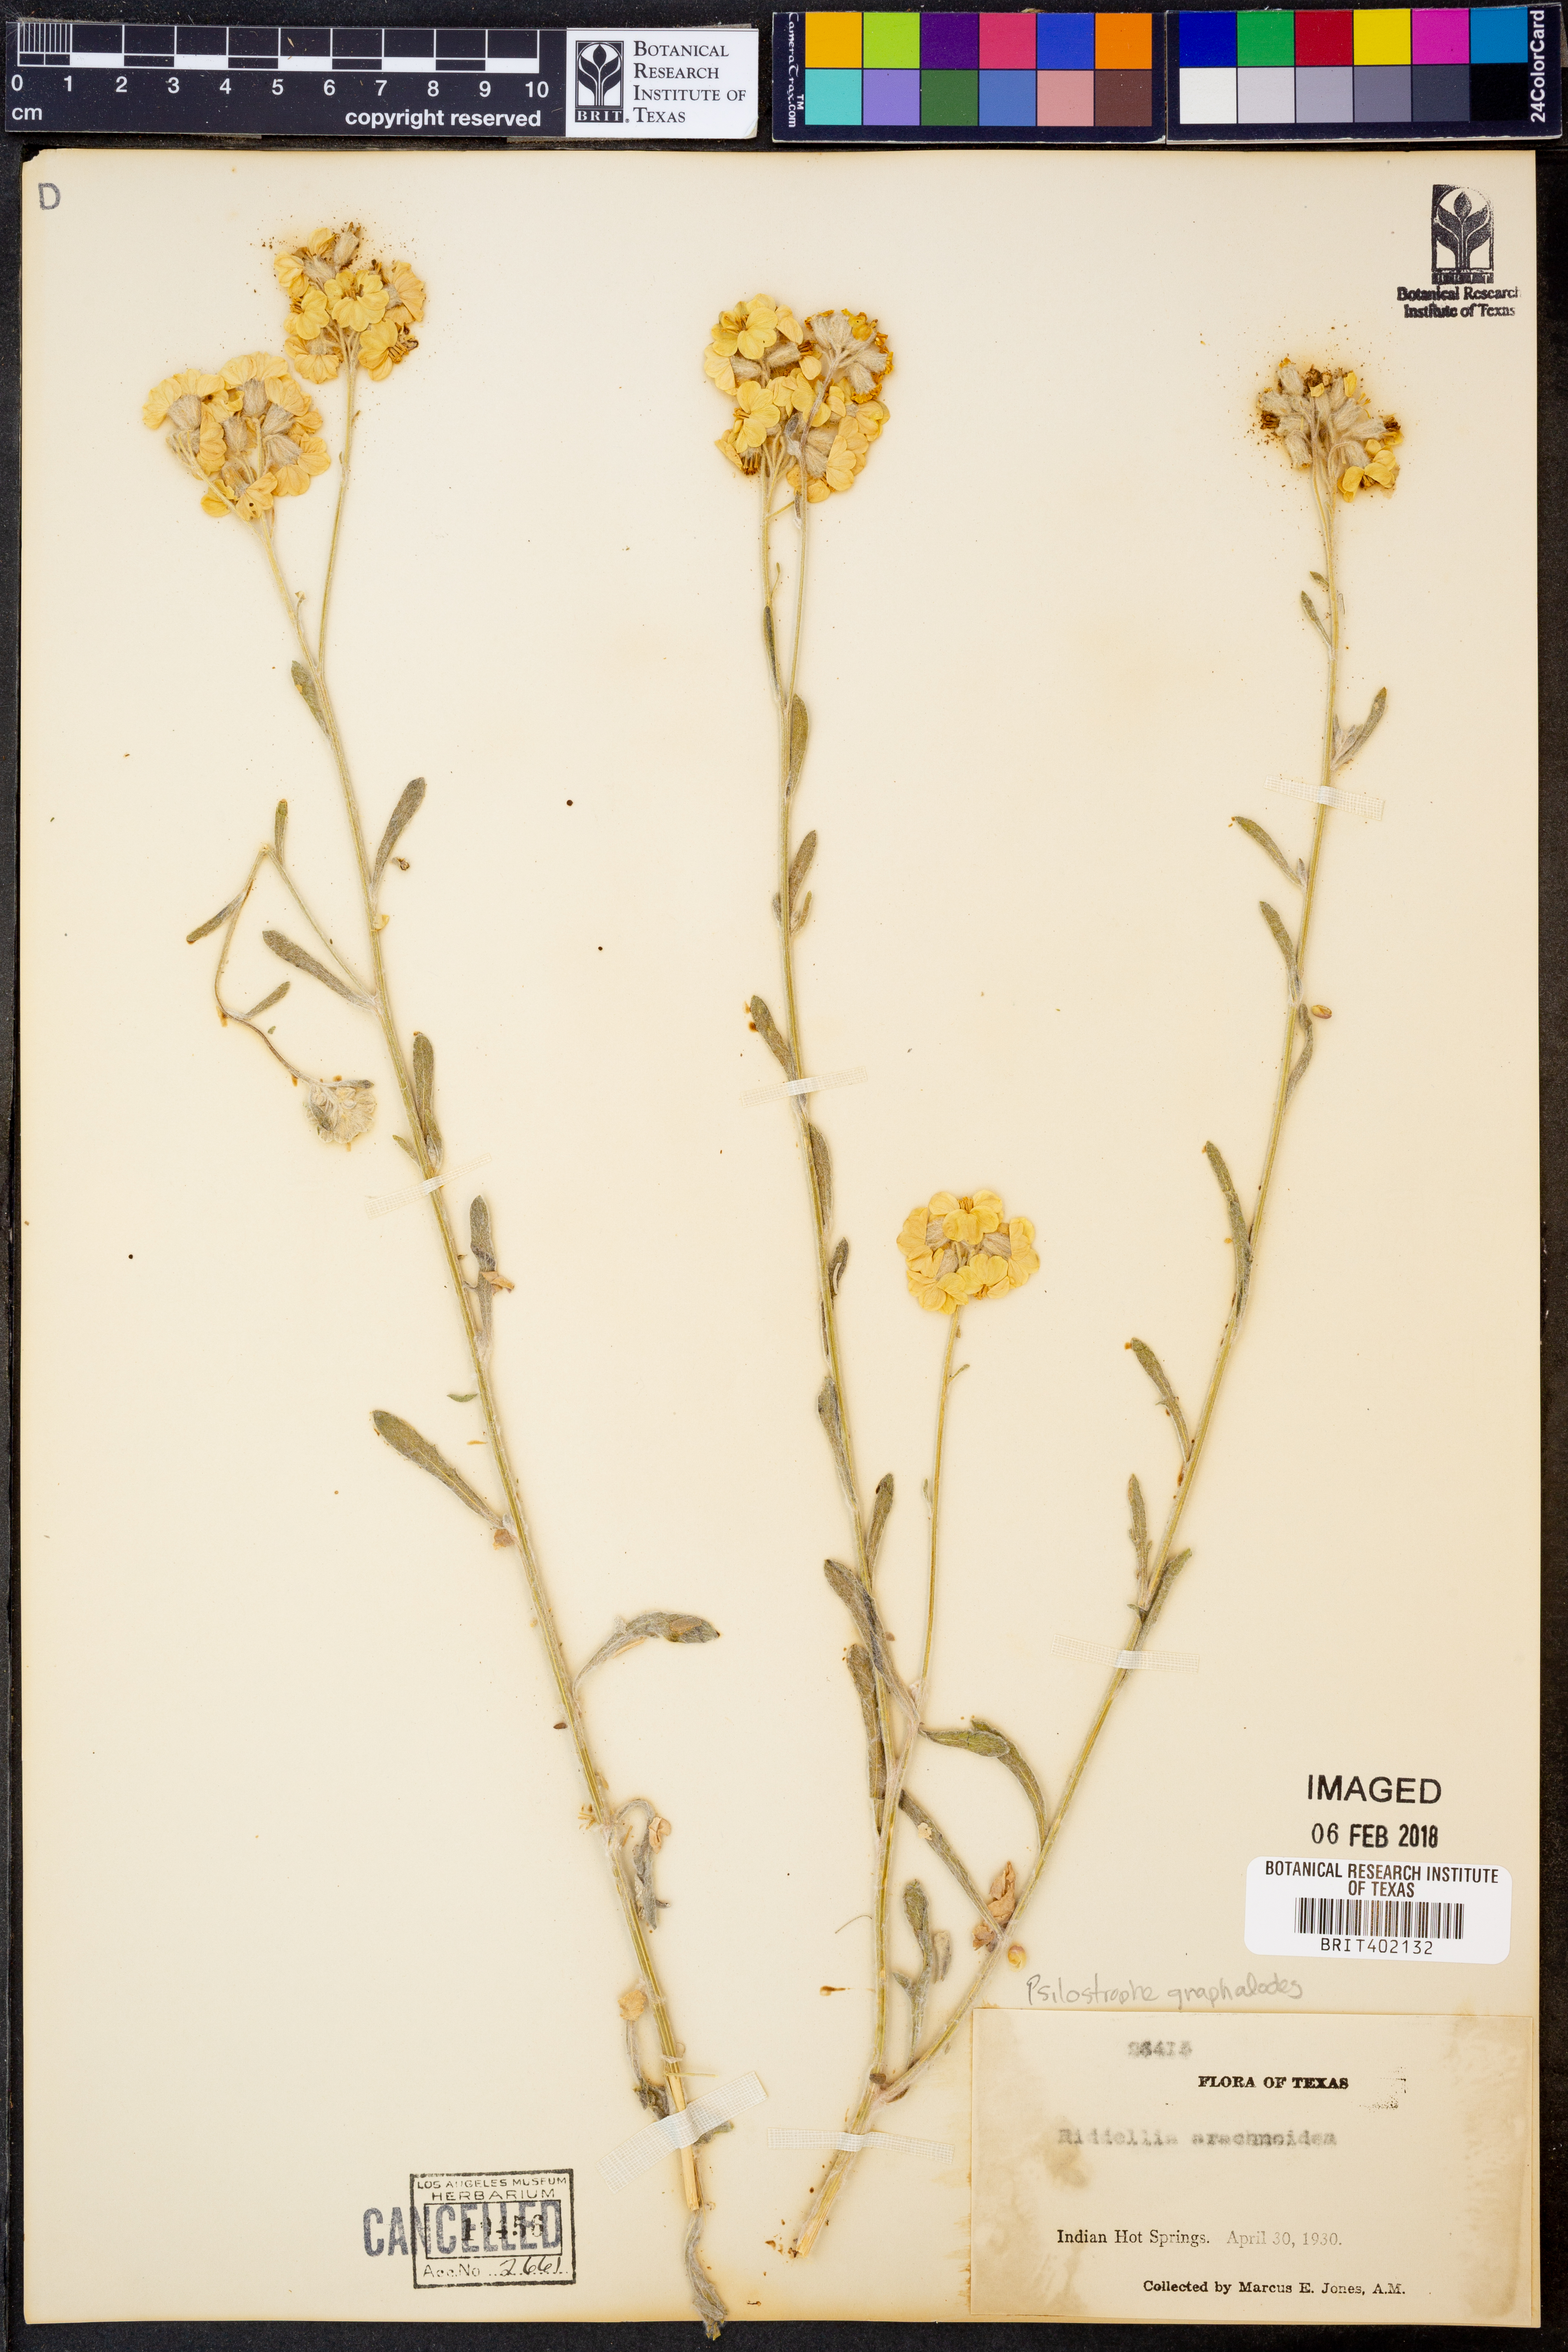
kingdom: Plantae
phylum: Tracheophyta
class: Magnoliopsida
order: Asterales
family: Asteraceae
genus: Psilostrophe
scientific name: Psilostrophe gnaphalioides
